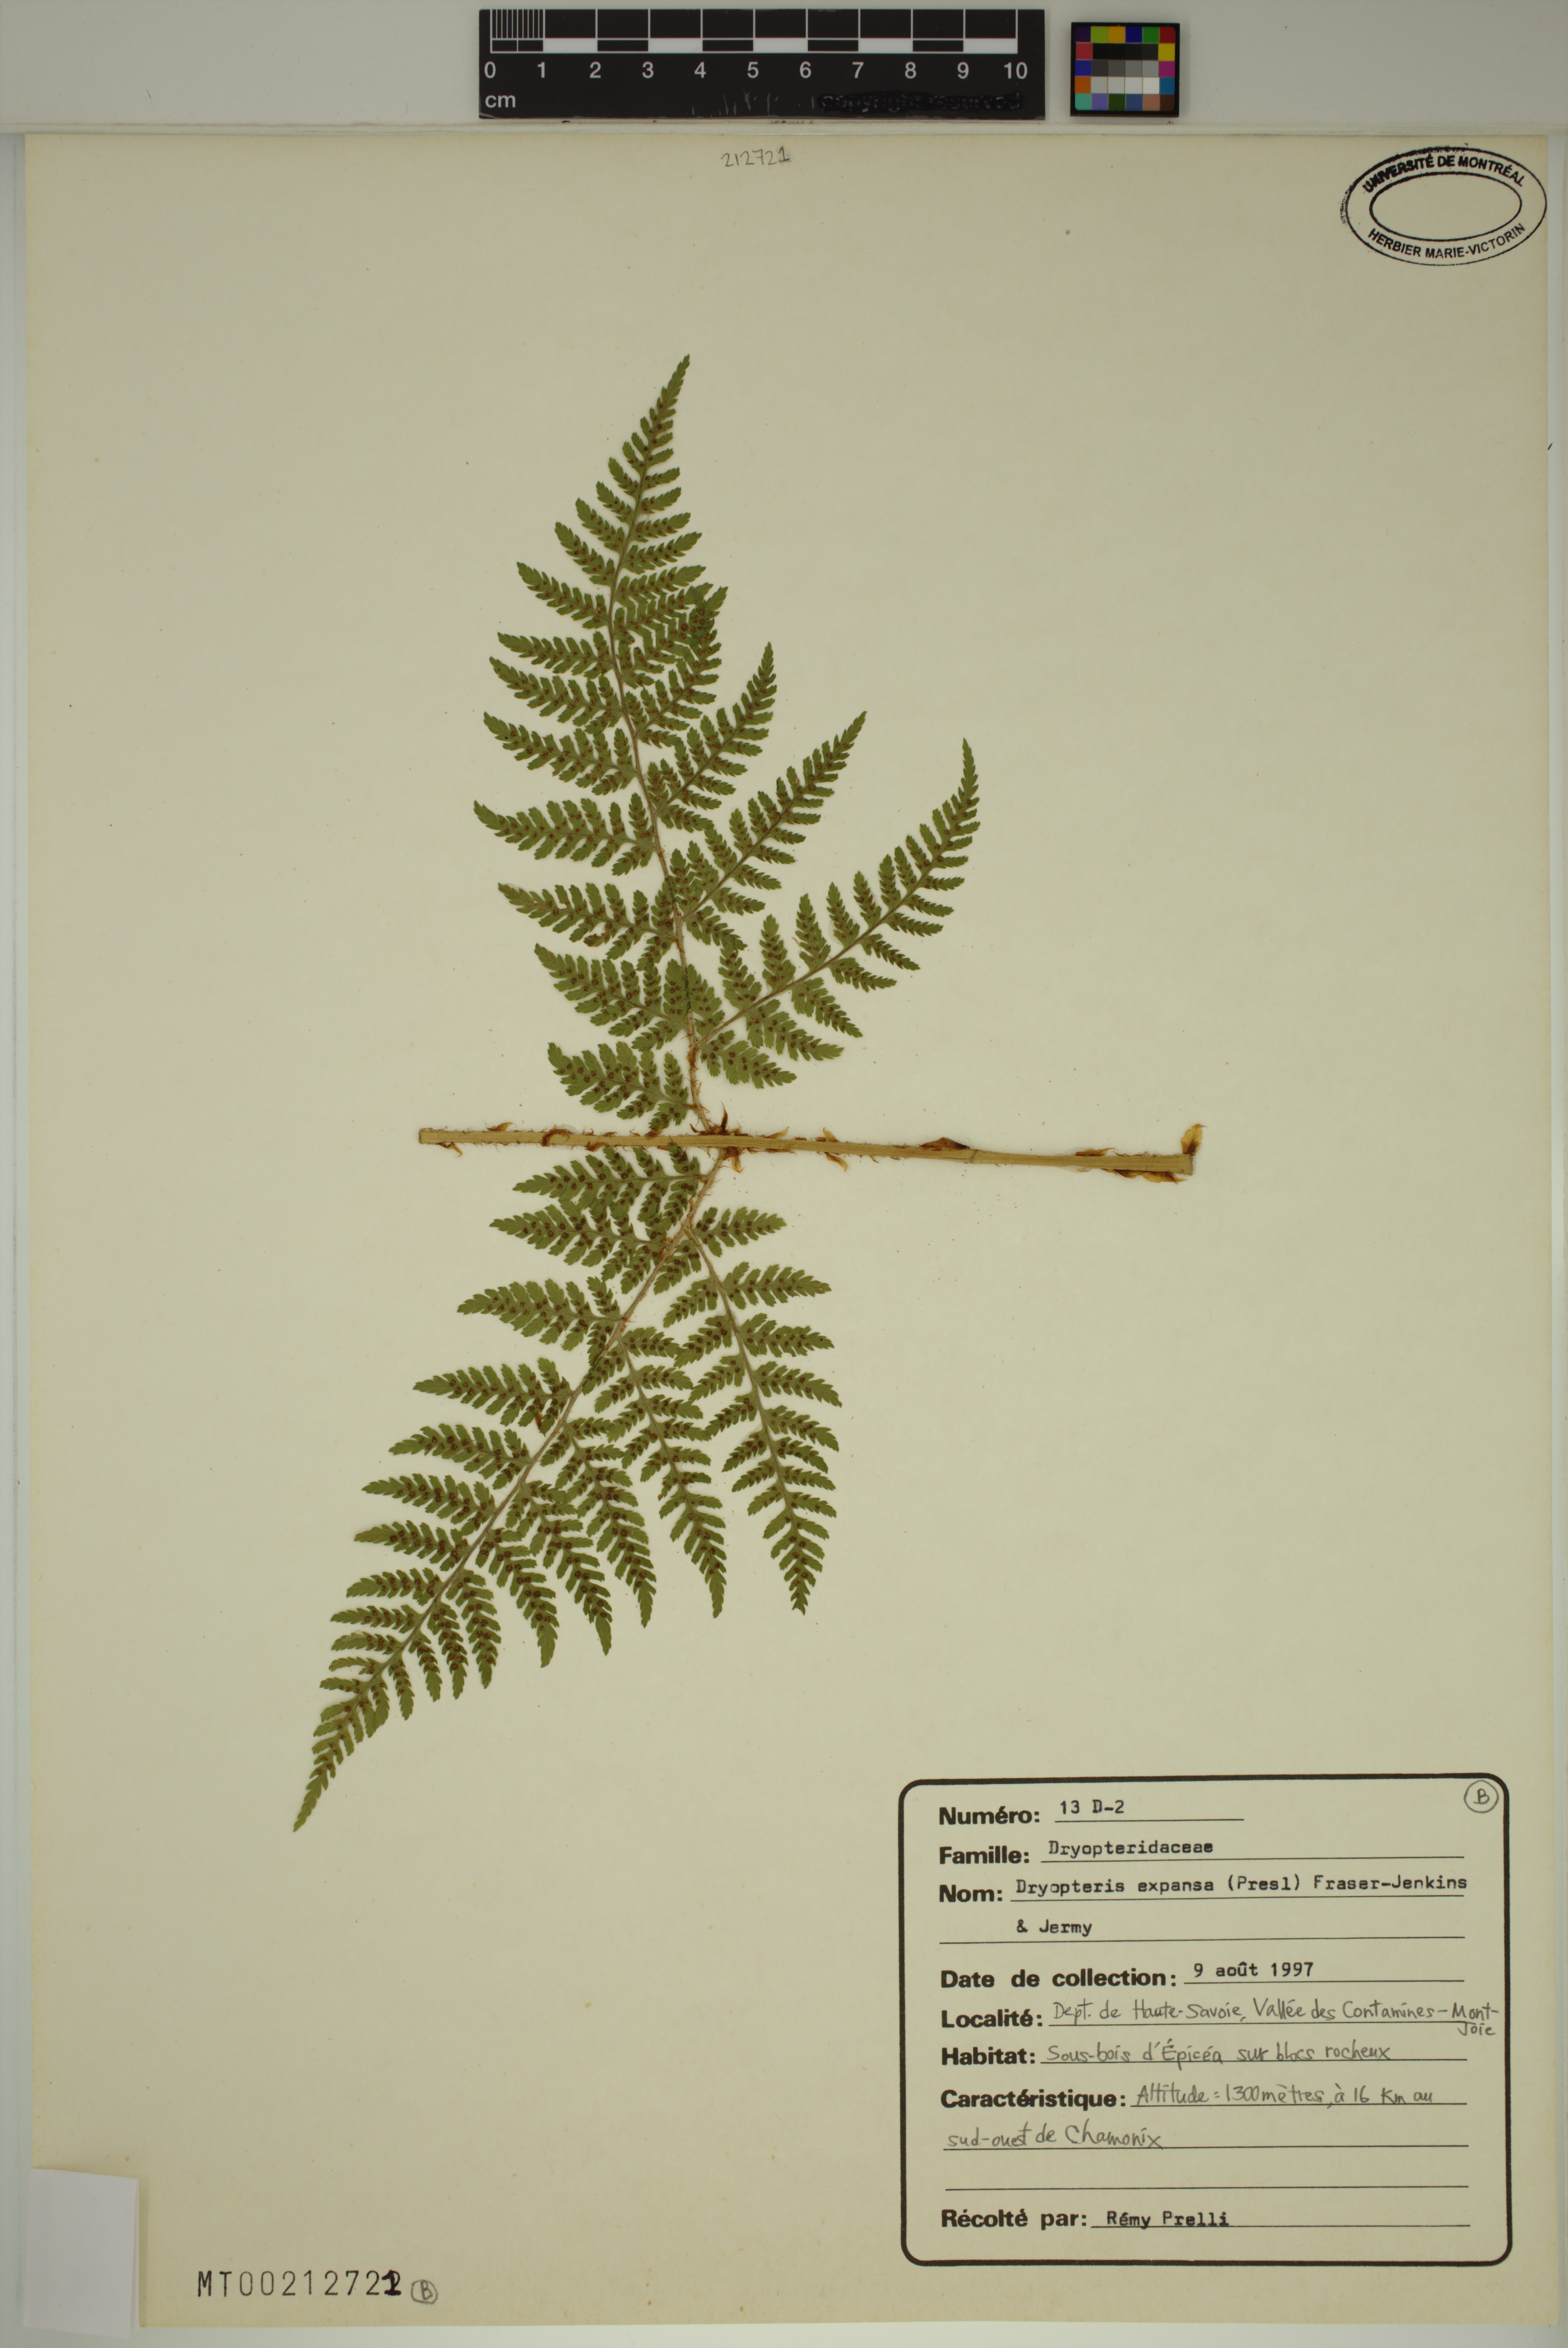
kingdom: Plantae
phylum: Tracheophyta
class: Polypodiopsida
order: Polypodiales
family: Dryopteridaceae
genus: Dryopteris
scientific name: Dryopteris expansa
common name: Northern buckler fern
